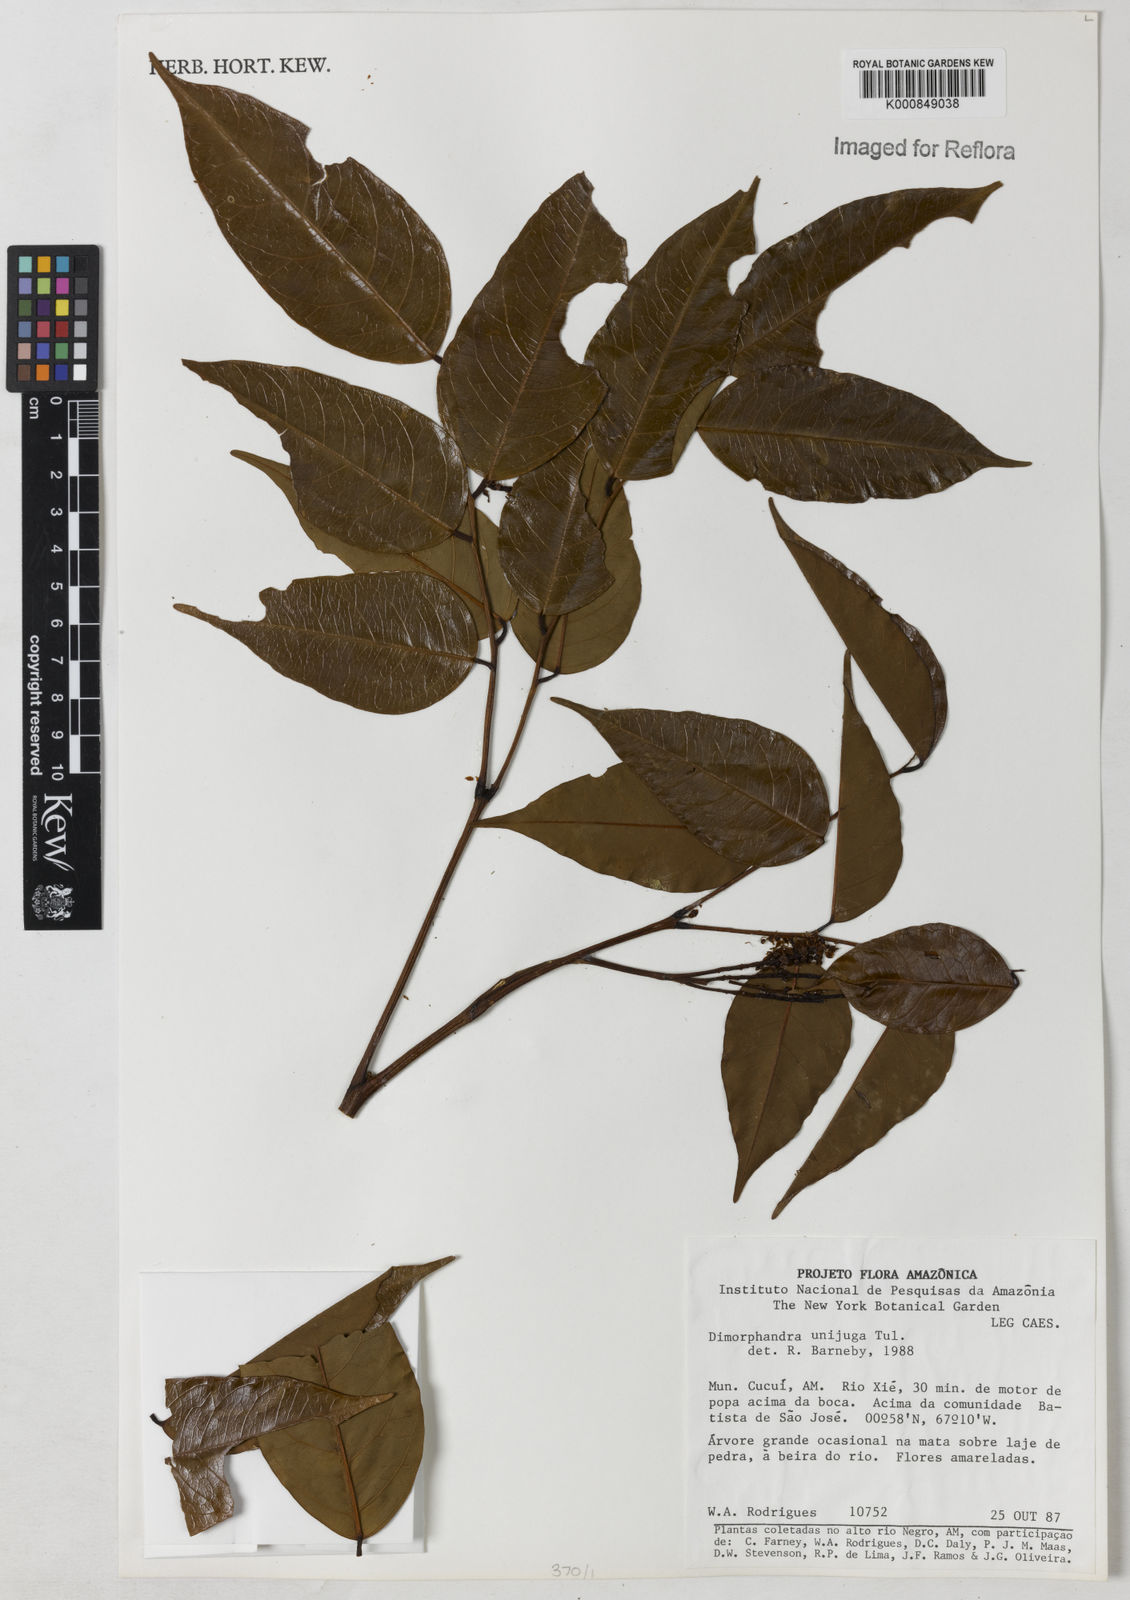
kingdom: Plantae
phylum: Tracheophyta
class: Magnoliopsida
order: Fabales
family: Fabaceae
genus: Dimorphandra
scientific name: Dimorphandra unijuga
